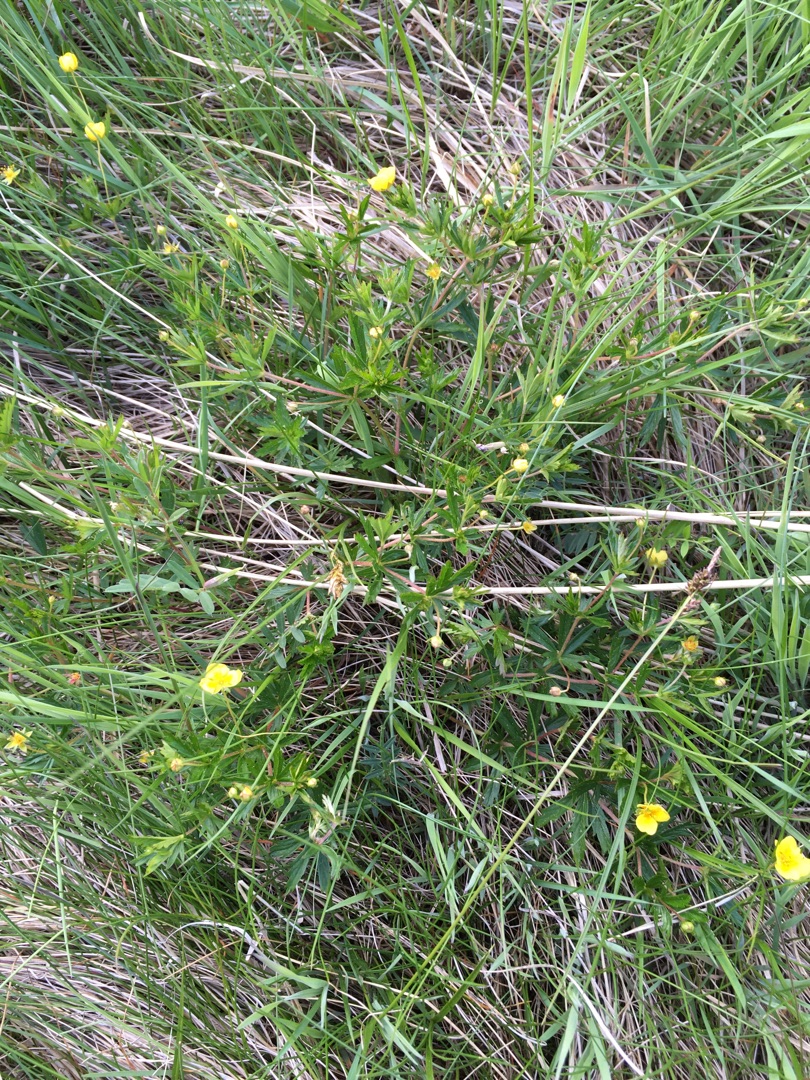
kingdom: Plantae
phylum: Tracheophyta
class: Magnoliopsida
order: Rosales
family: Rosaceae
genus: Potentilla
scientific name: Potentilla erecta
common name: Tormentil
